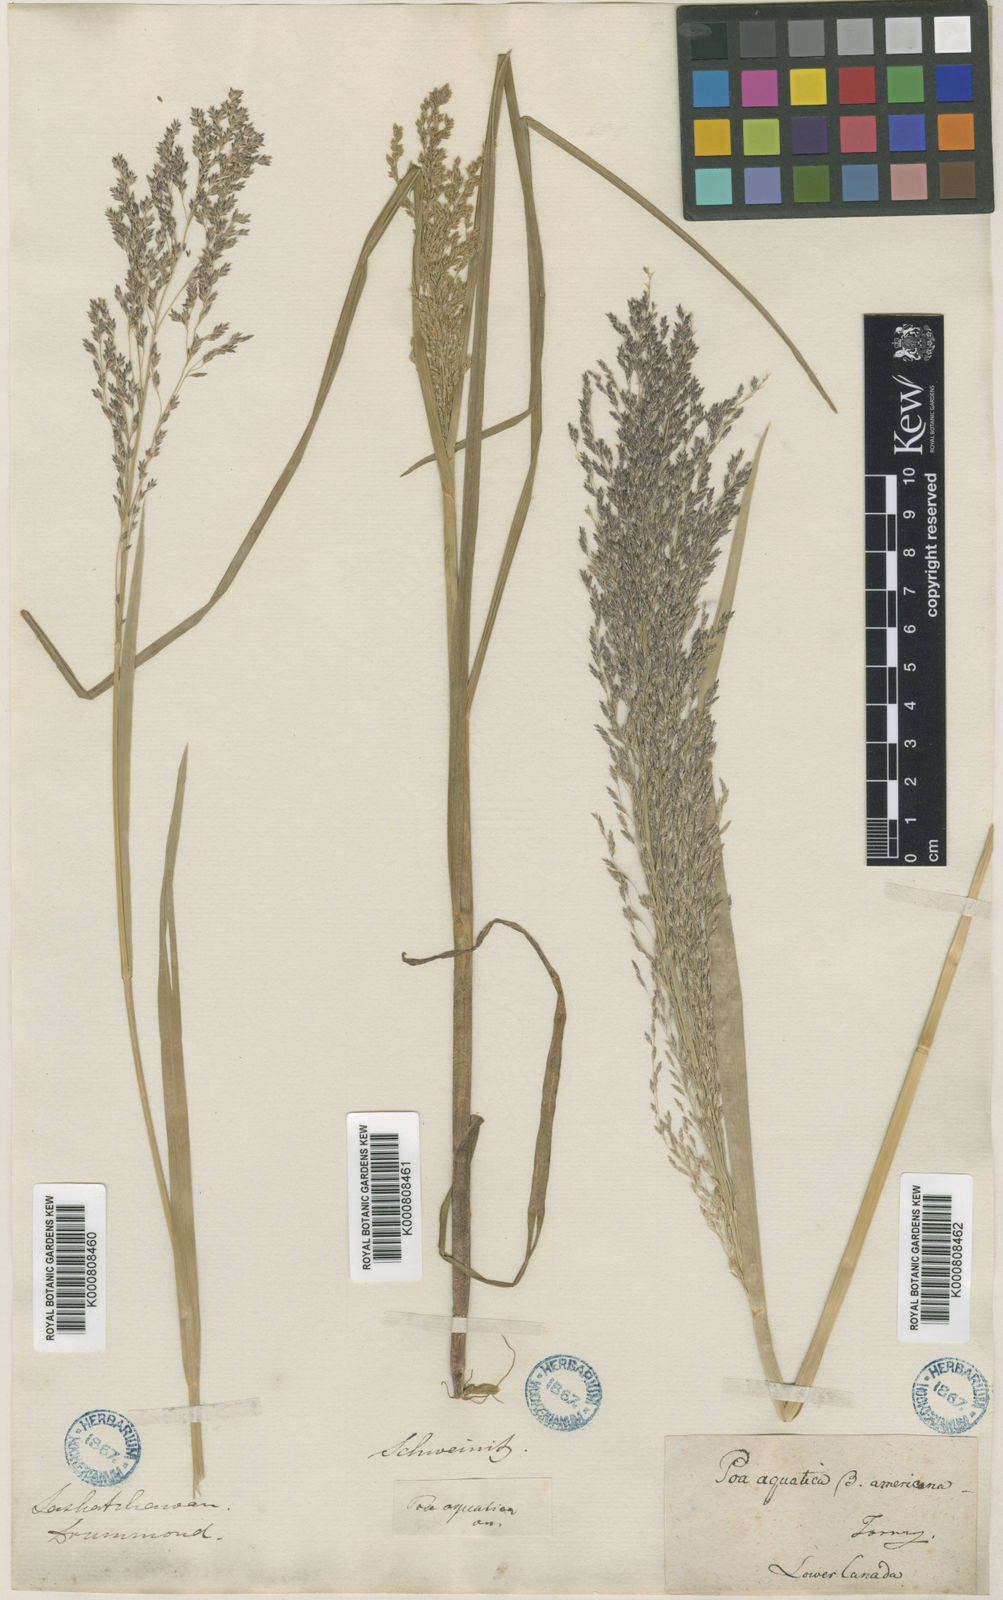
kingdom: Plantae
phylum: Tracheophyta
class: Liliopsida
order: Poales
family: Poaceae
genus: Glyceria
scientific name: Glyceria grandis
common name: American glyceria
